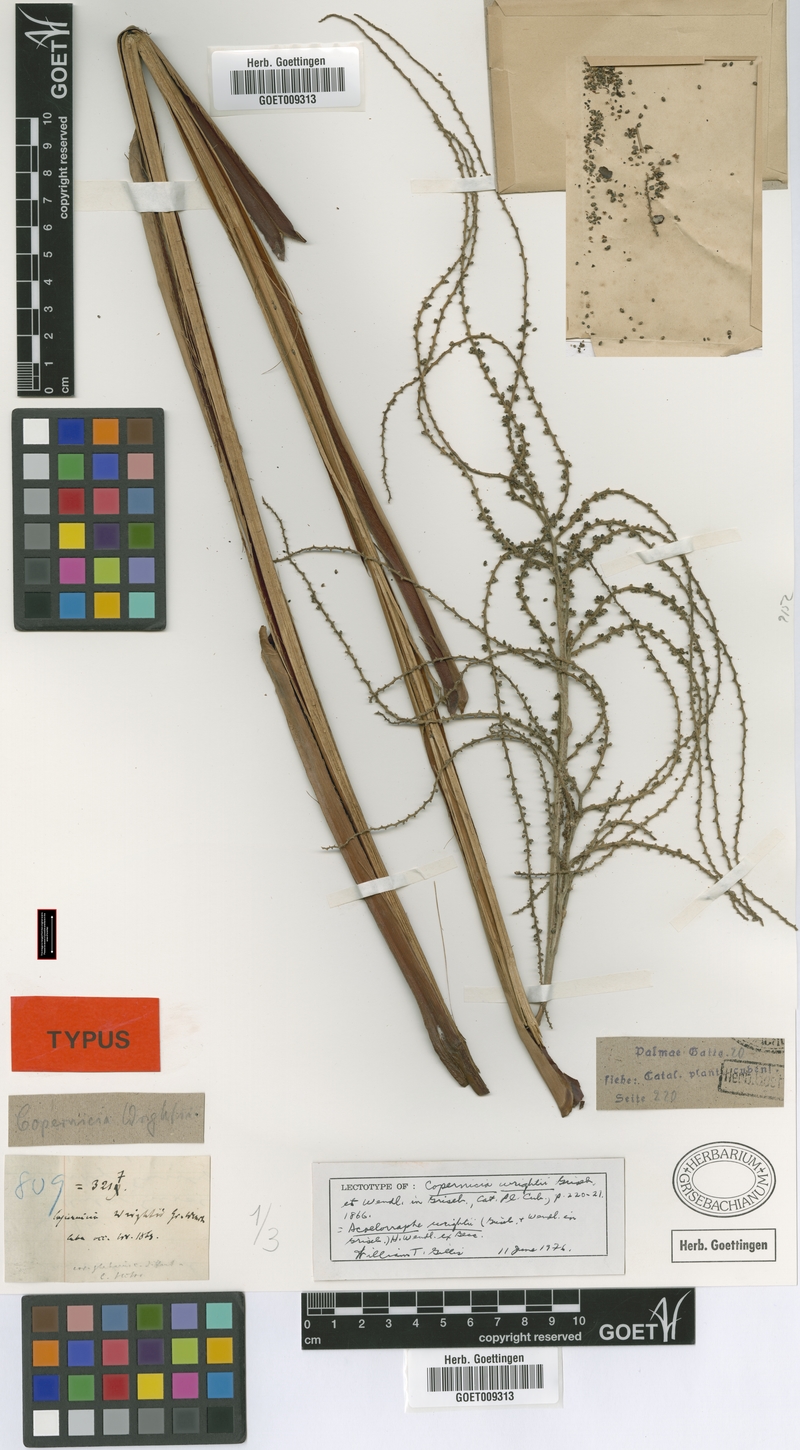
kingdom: Plantae
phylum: Tracheophyta
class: Liliopsida
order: Arecales
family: Arecaceae
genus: Acoelorraphe
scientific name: Acoelorraphe wrightii
